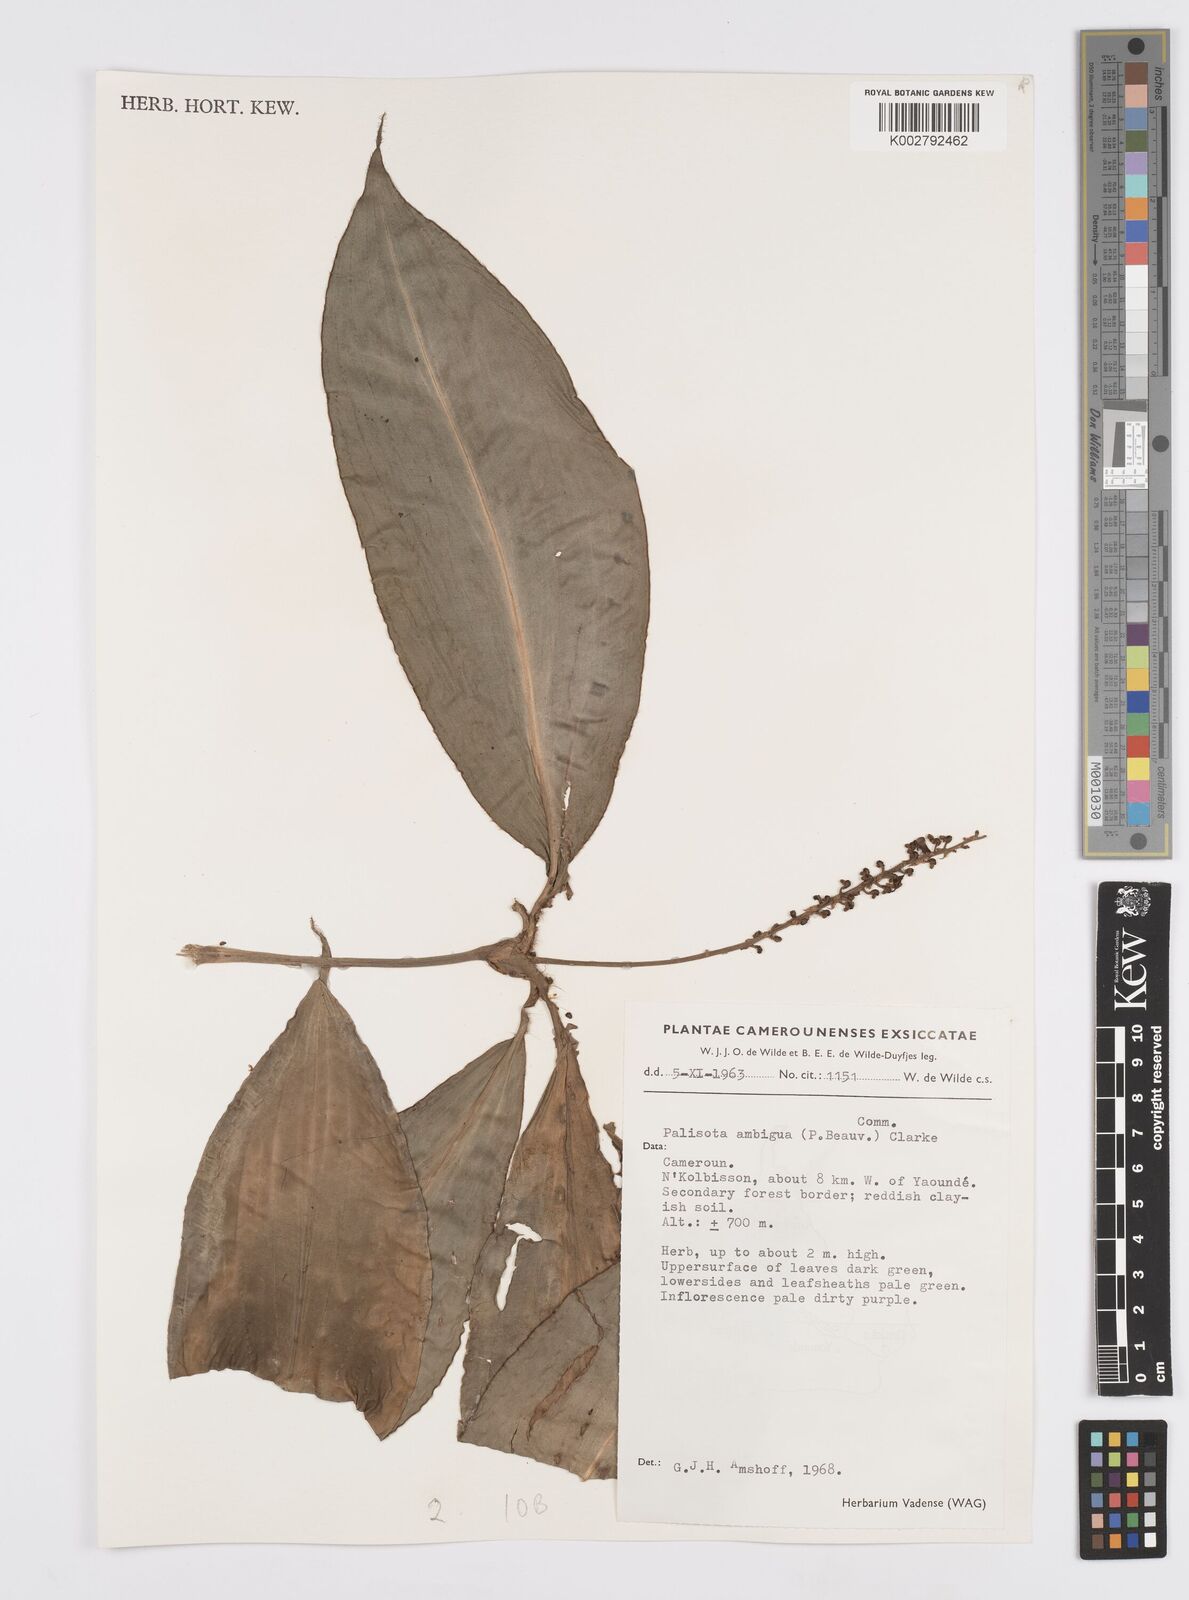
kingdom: Plantae
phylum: Tracheophyta
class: Liliopsida
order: Commelinales
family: Commelinaceae
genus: Palisota
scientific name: Palisota ambigua
